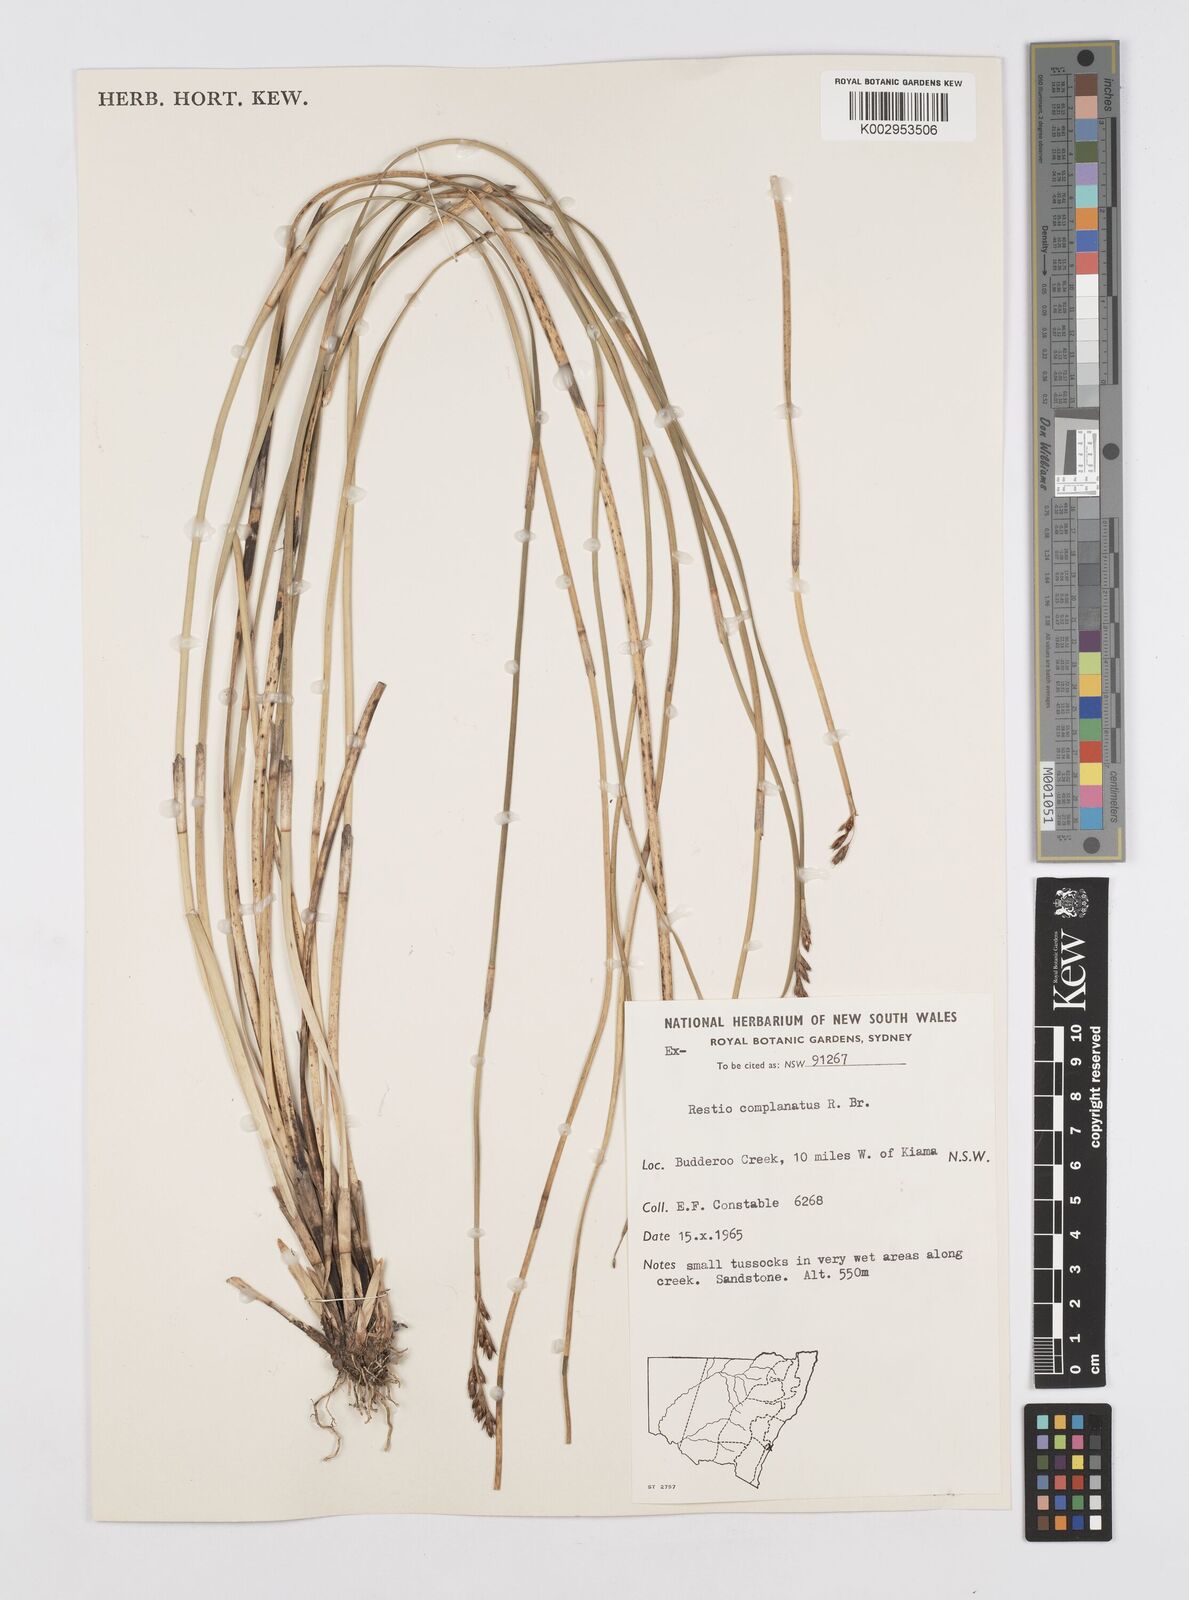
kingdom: Plantae
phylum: Tracheophyta
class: Liliopsida
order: Poales
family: Restionaceae
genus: Eurychorda
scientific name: Eurychorda complanata
